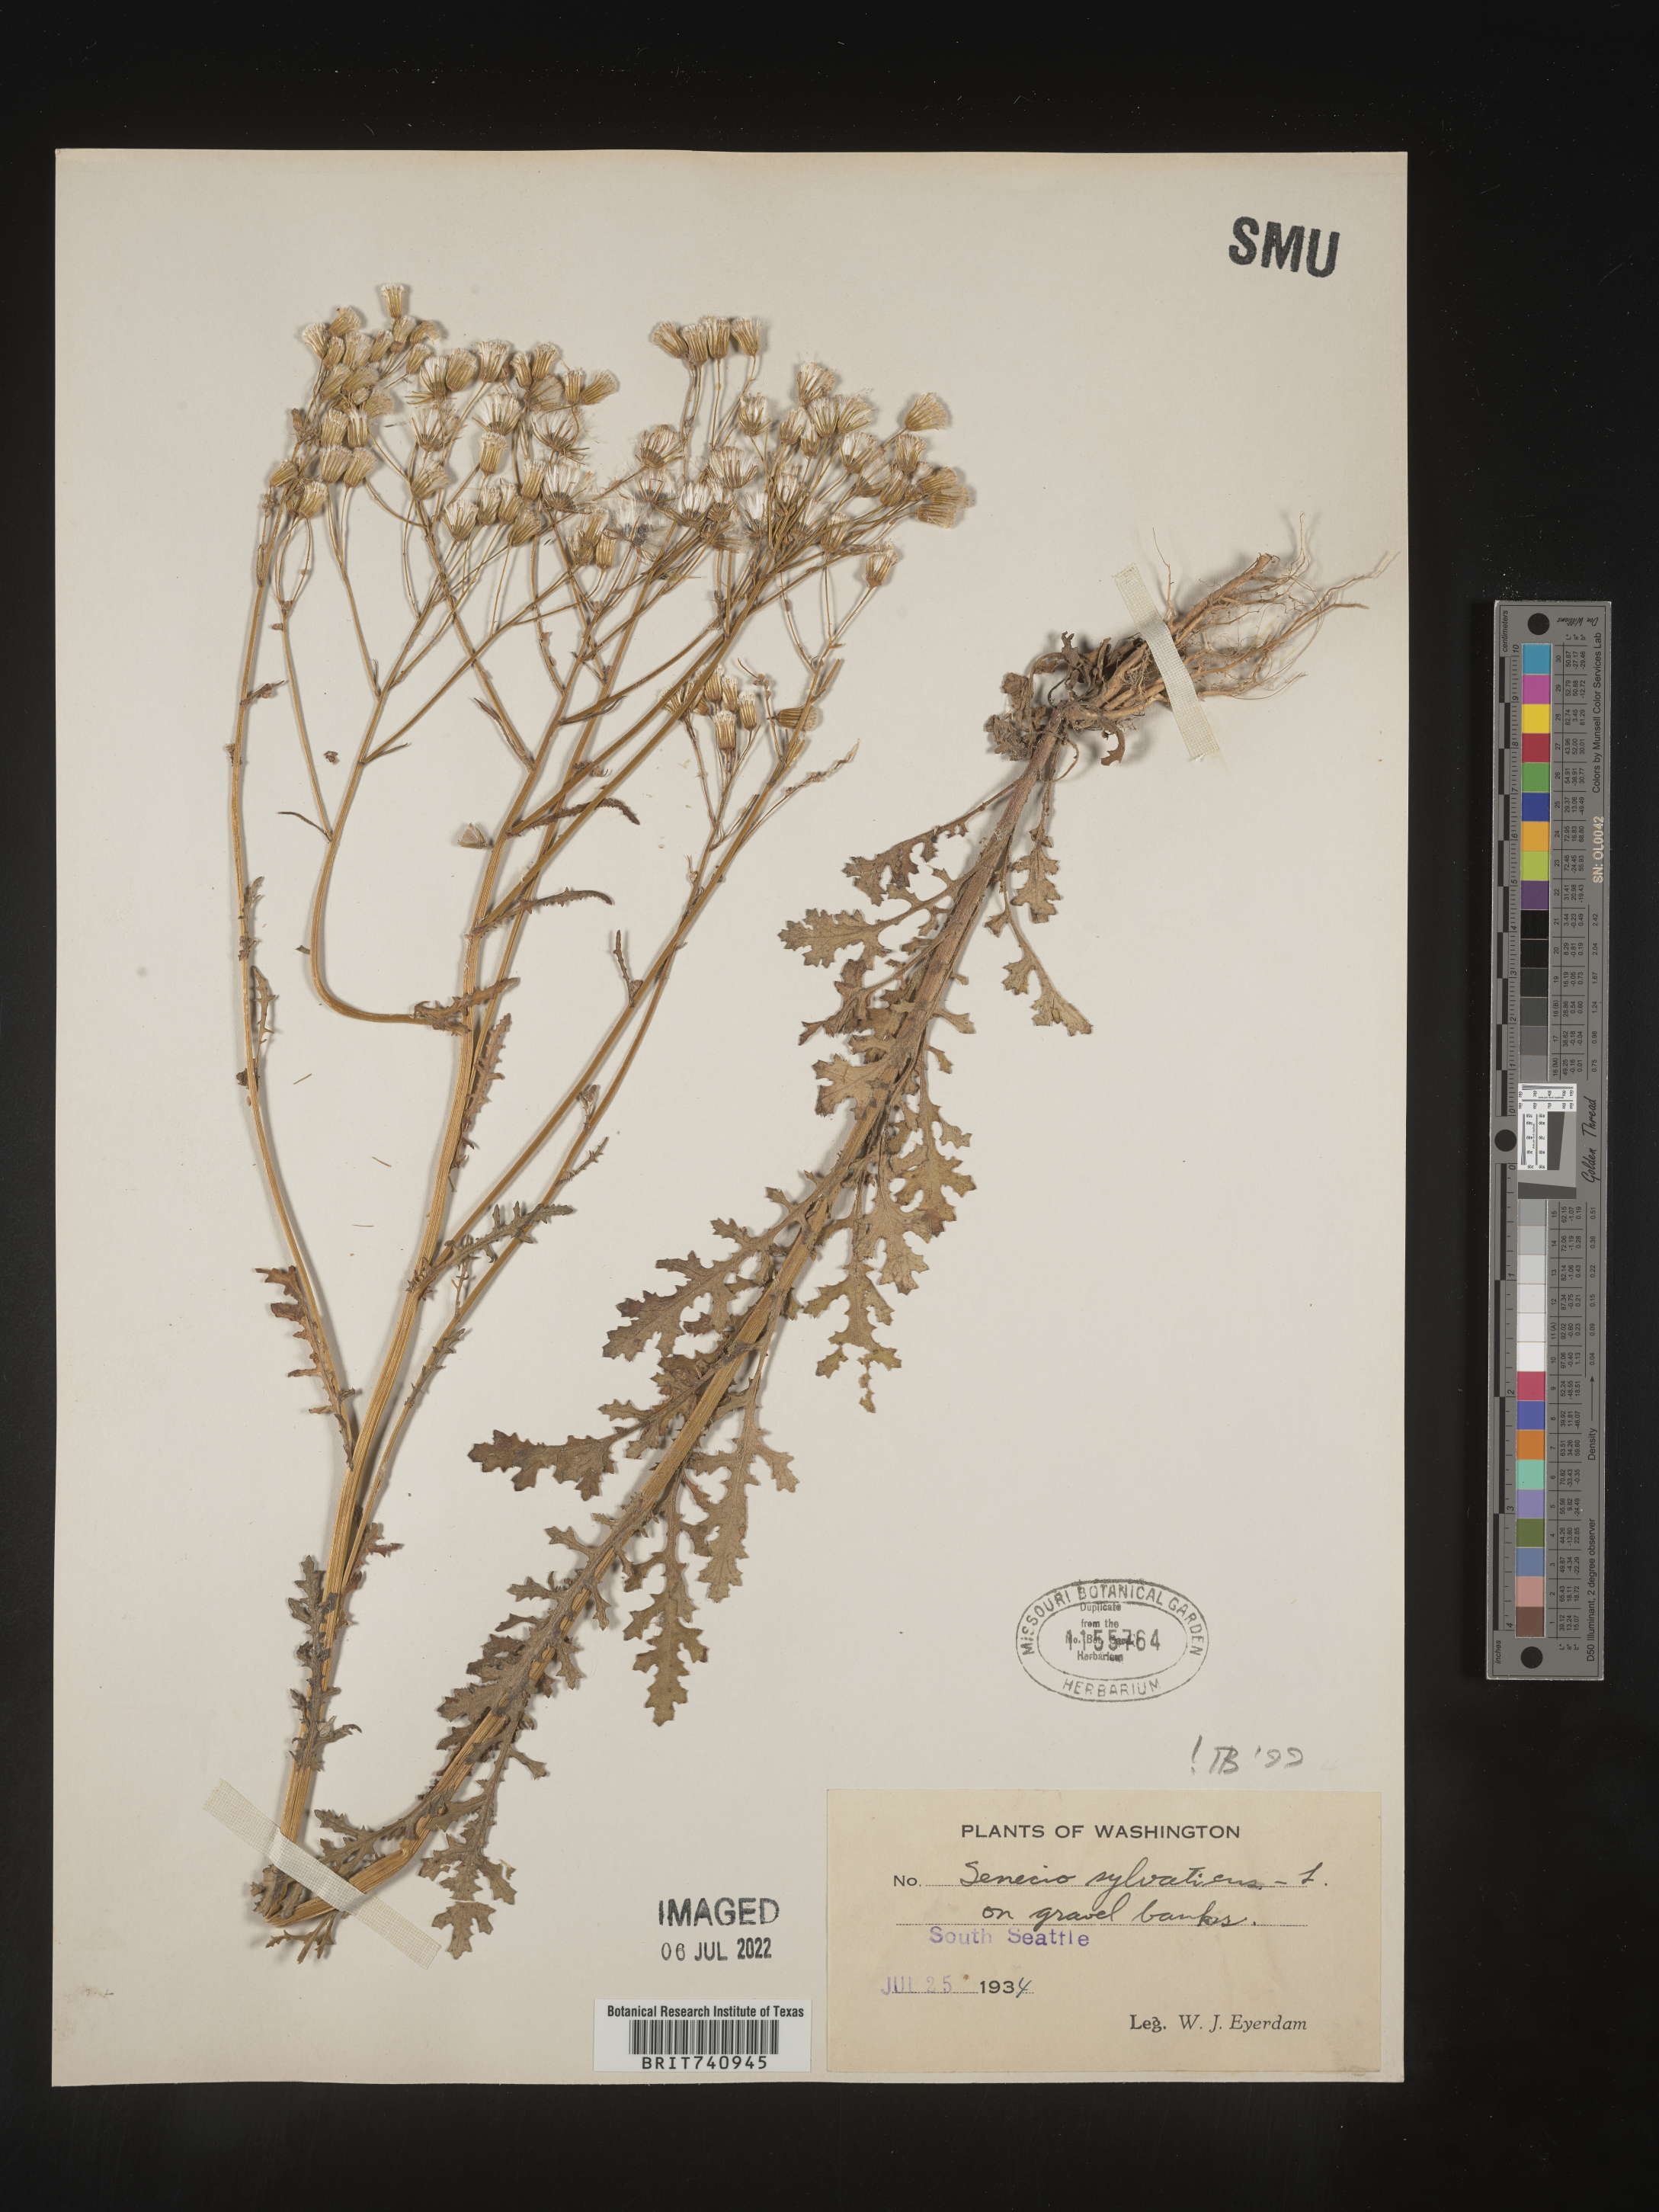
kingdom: Plantae
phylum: Tracheophyta
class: Magnoliopsida
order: Asterales
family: Asteraceae
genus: Senecio
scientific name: Senecio sylvaticus
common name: Woodland ragwort
